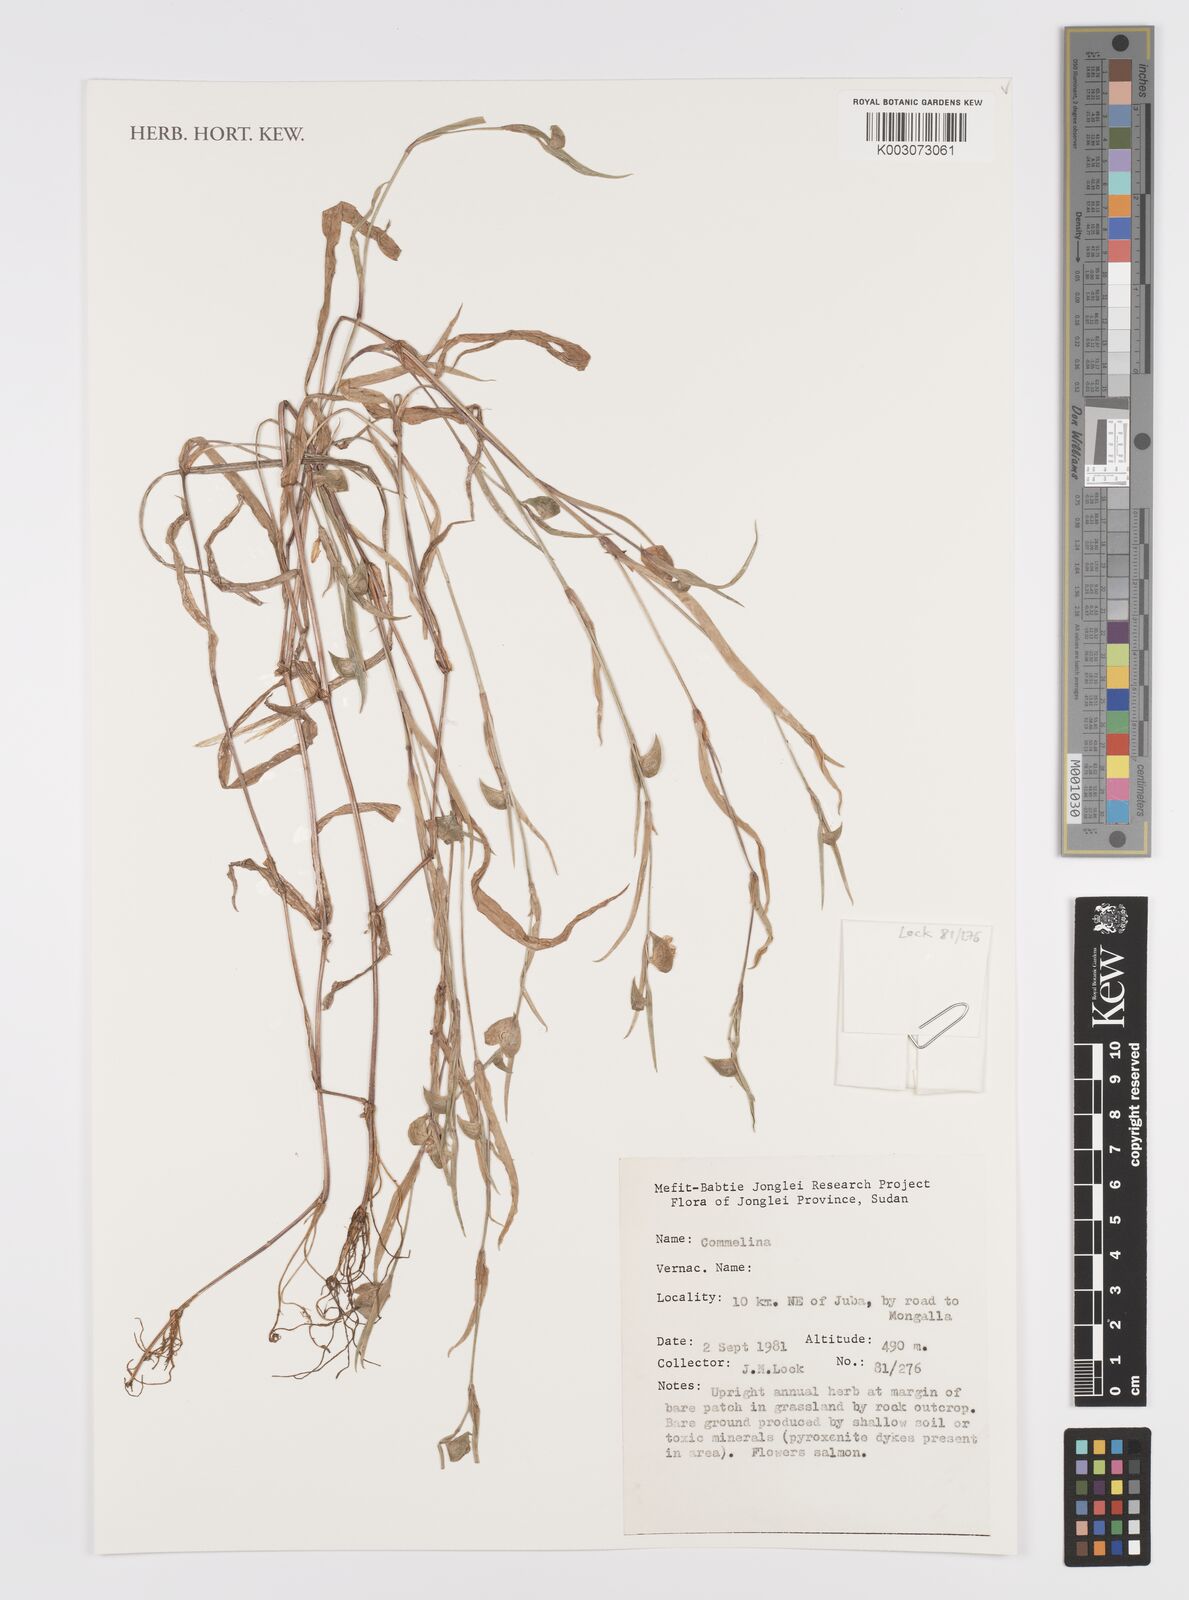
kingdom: Plantae
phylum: Tracheophyta
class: Liliopsida
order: Commelinales
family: Commelinaceae
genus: Commelina
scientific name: Commelina
